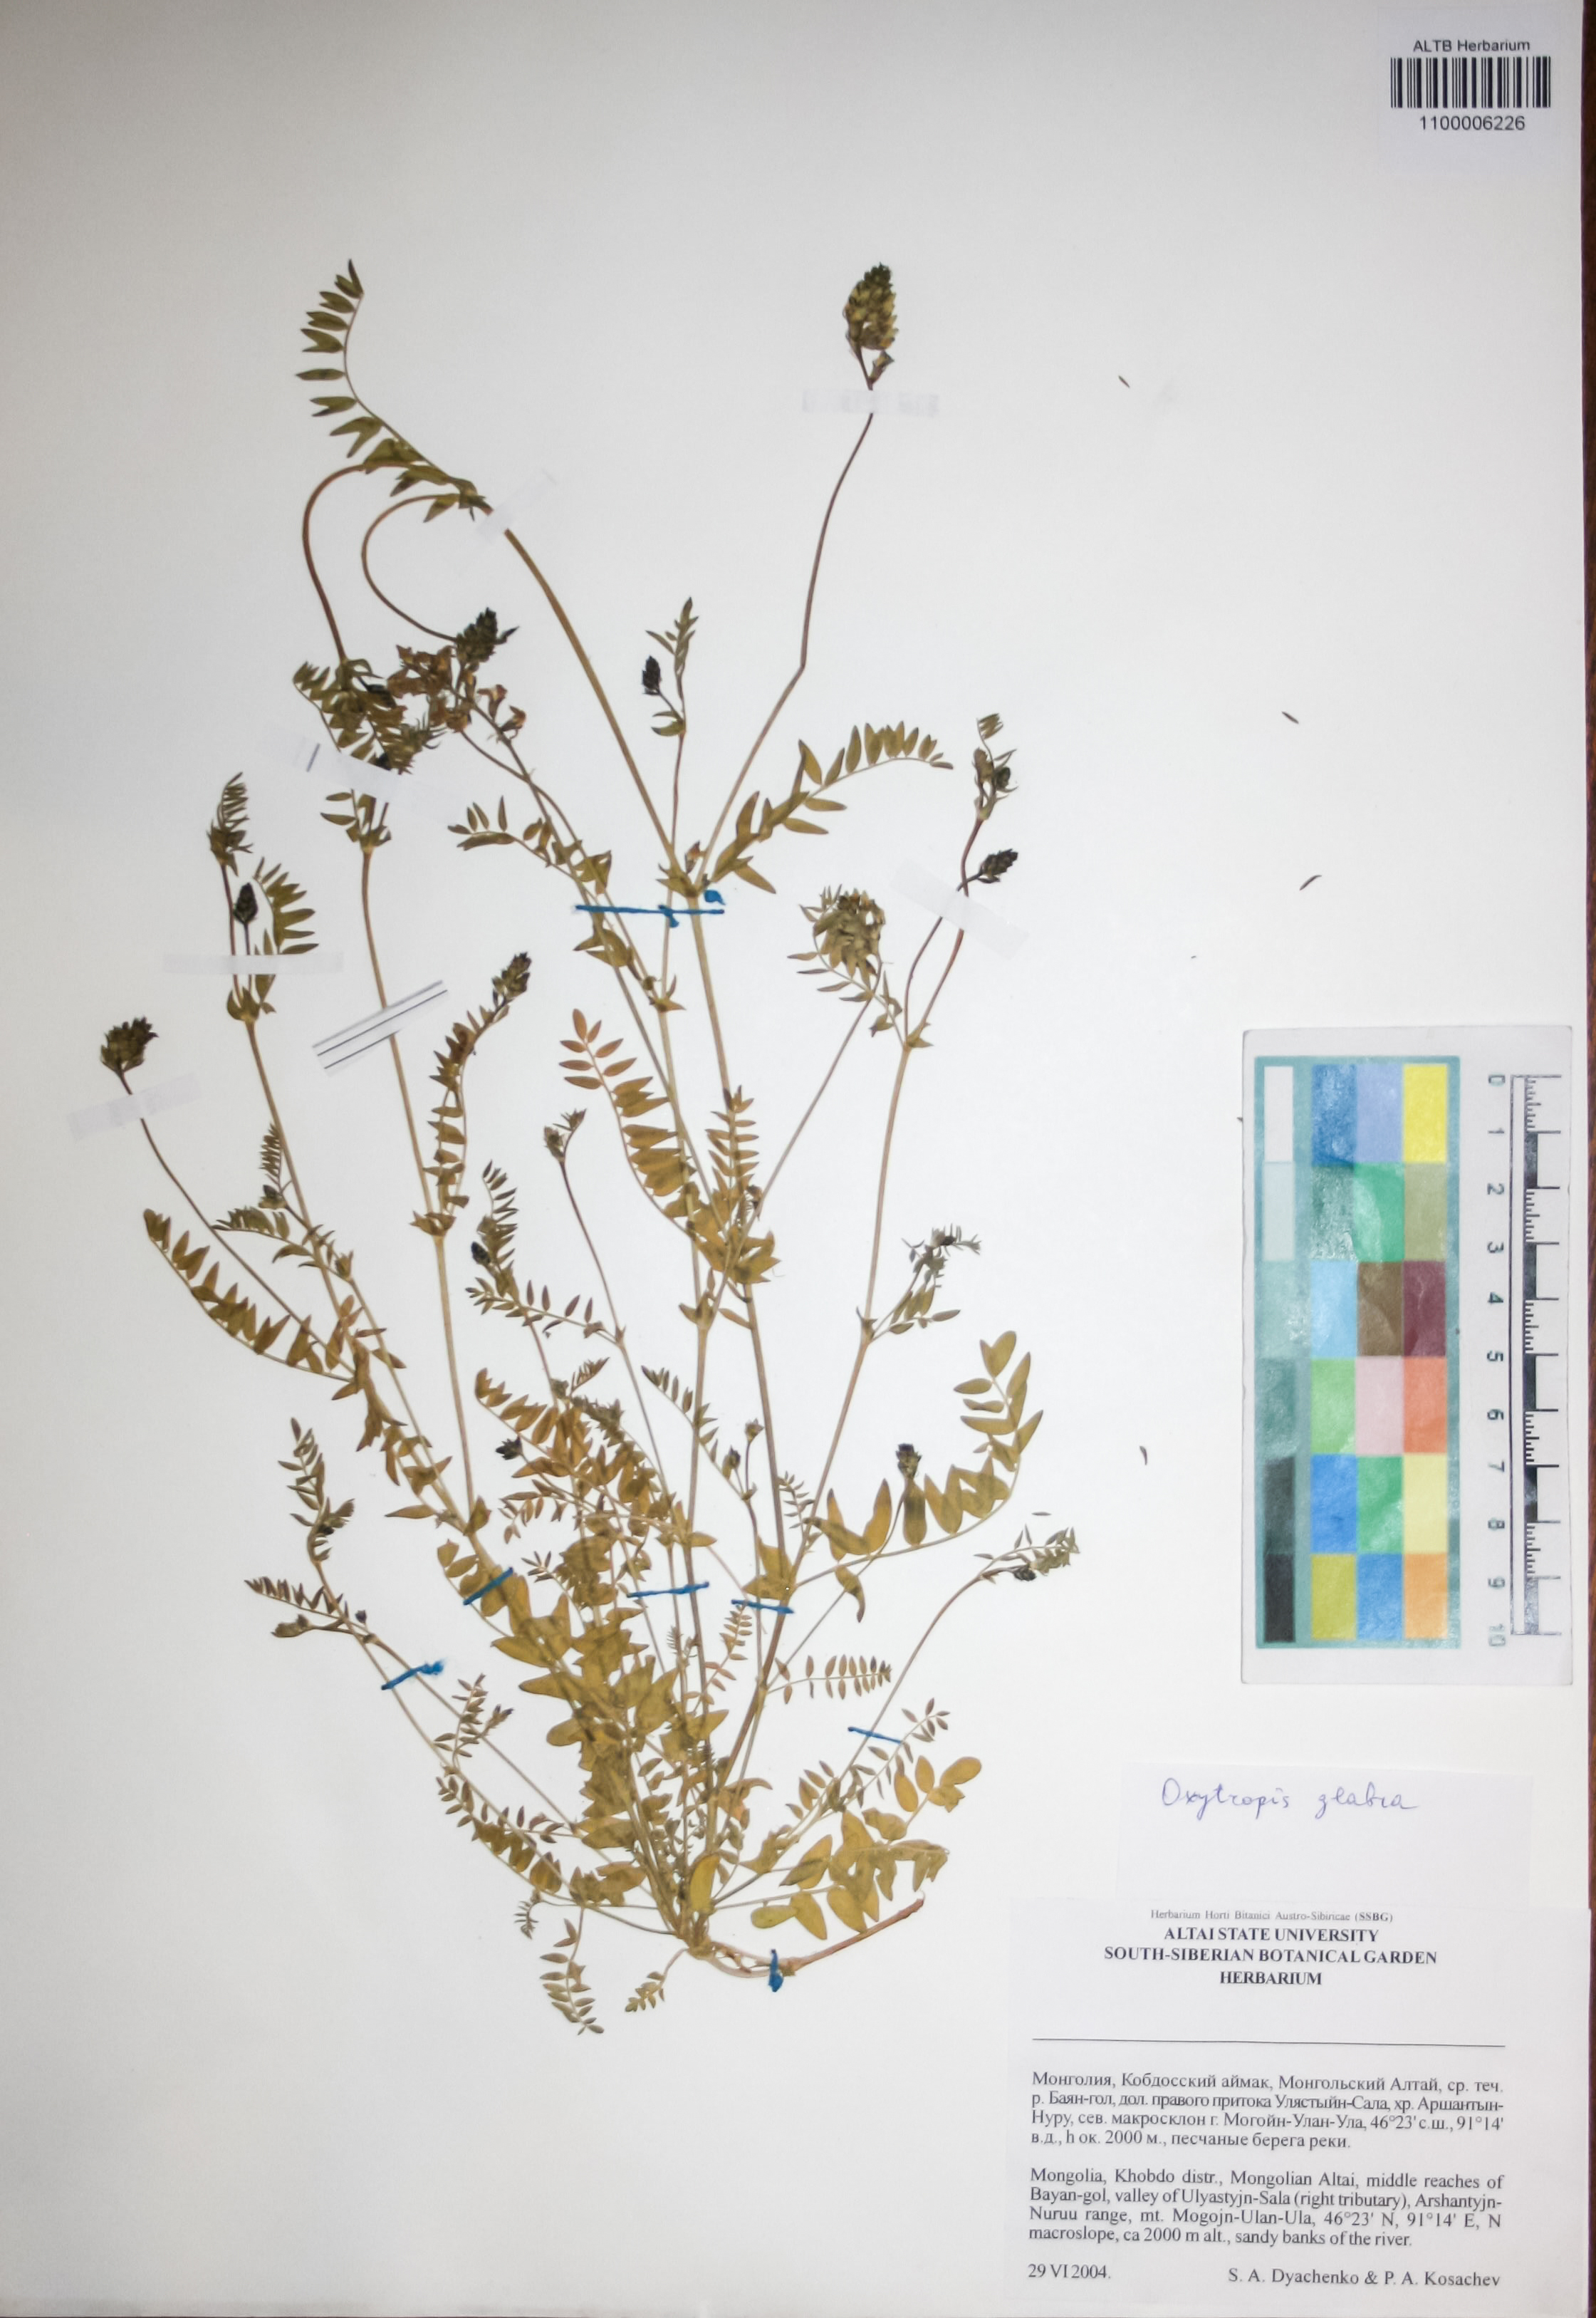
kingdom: Plantae
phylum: Tracheophyta
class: Magnoliopsida
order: Fabales
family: Fabaceae
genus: Oxytropis
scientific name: Oxytropis glabra
